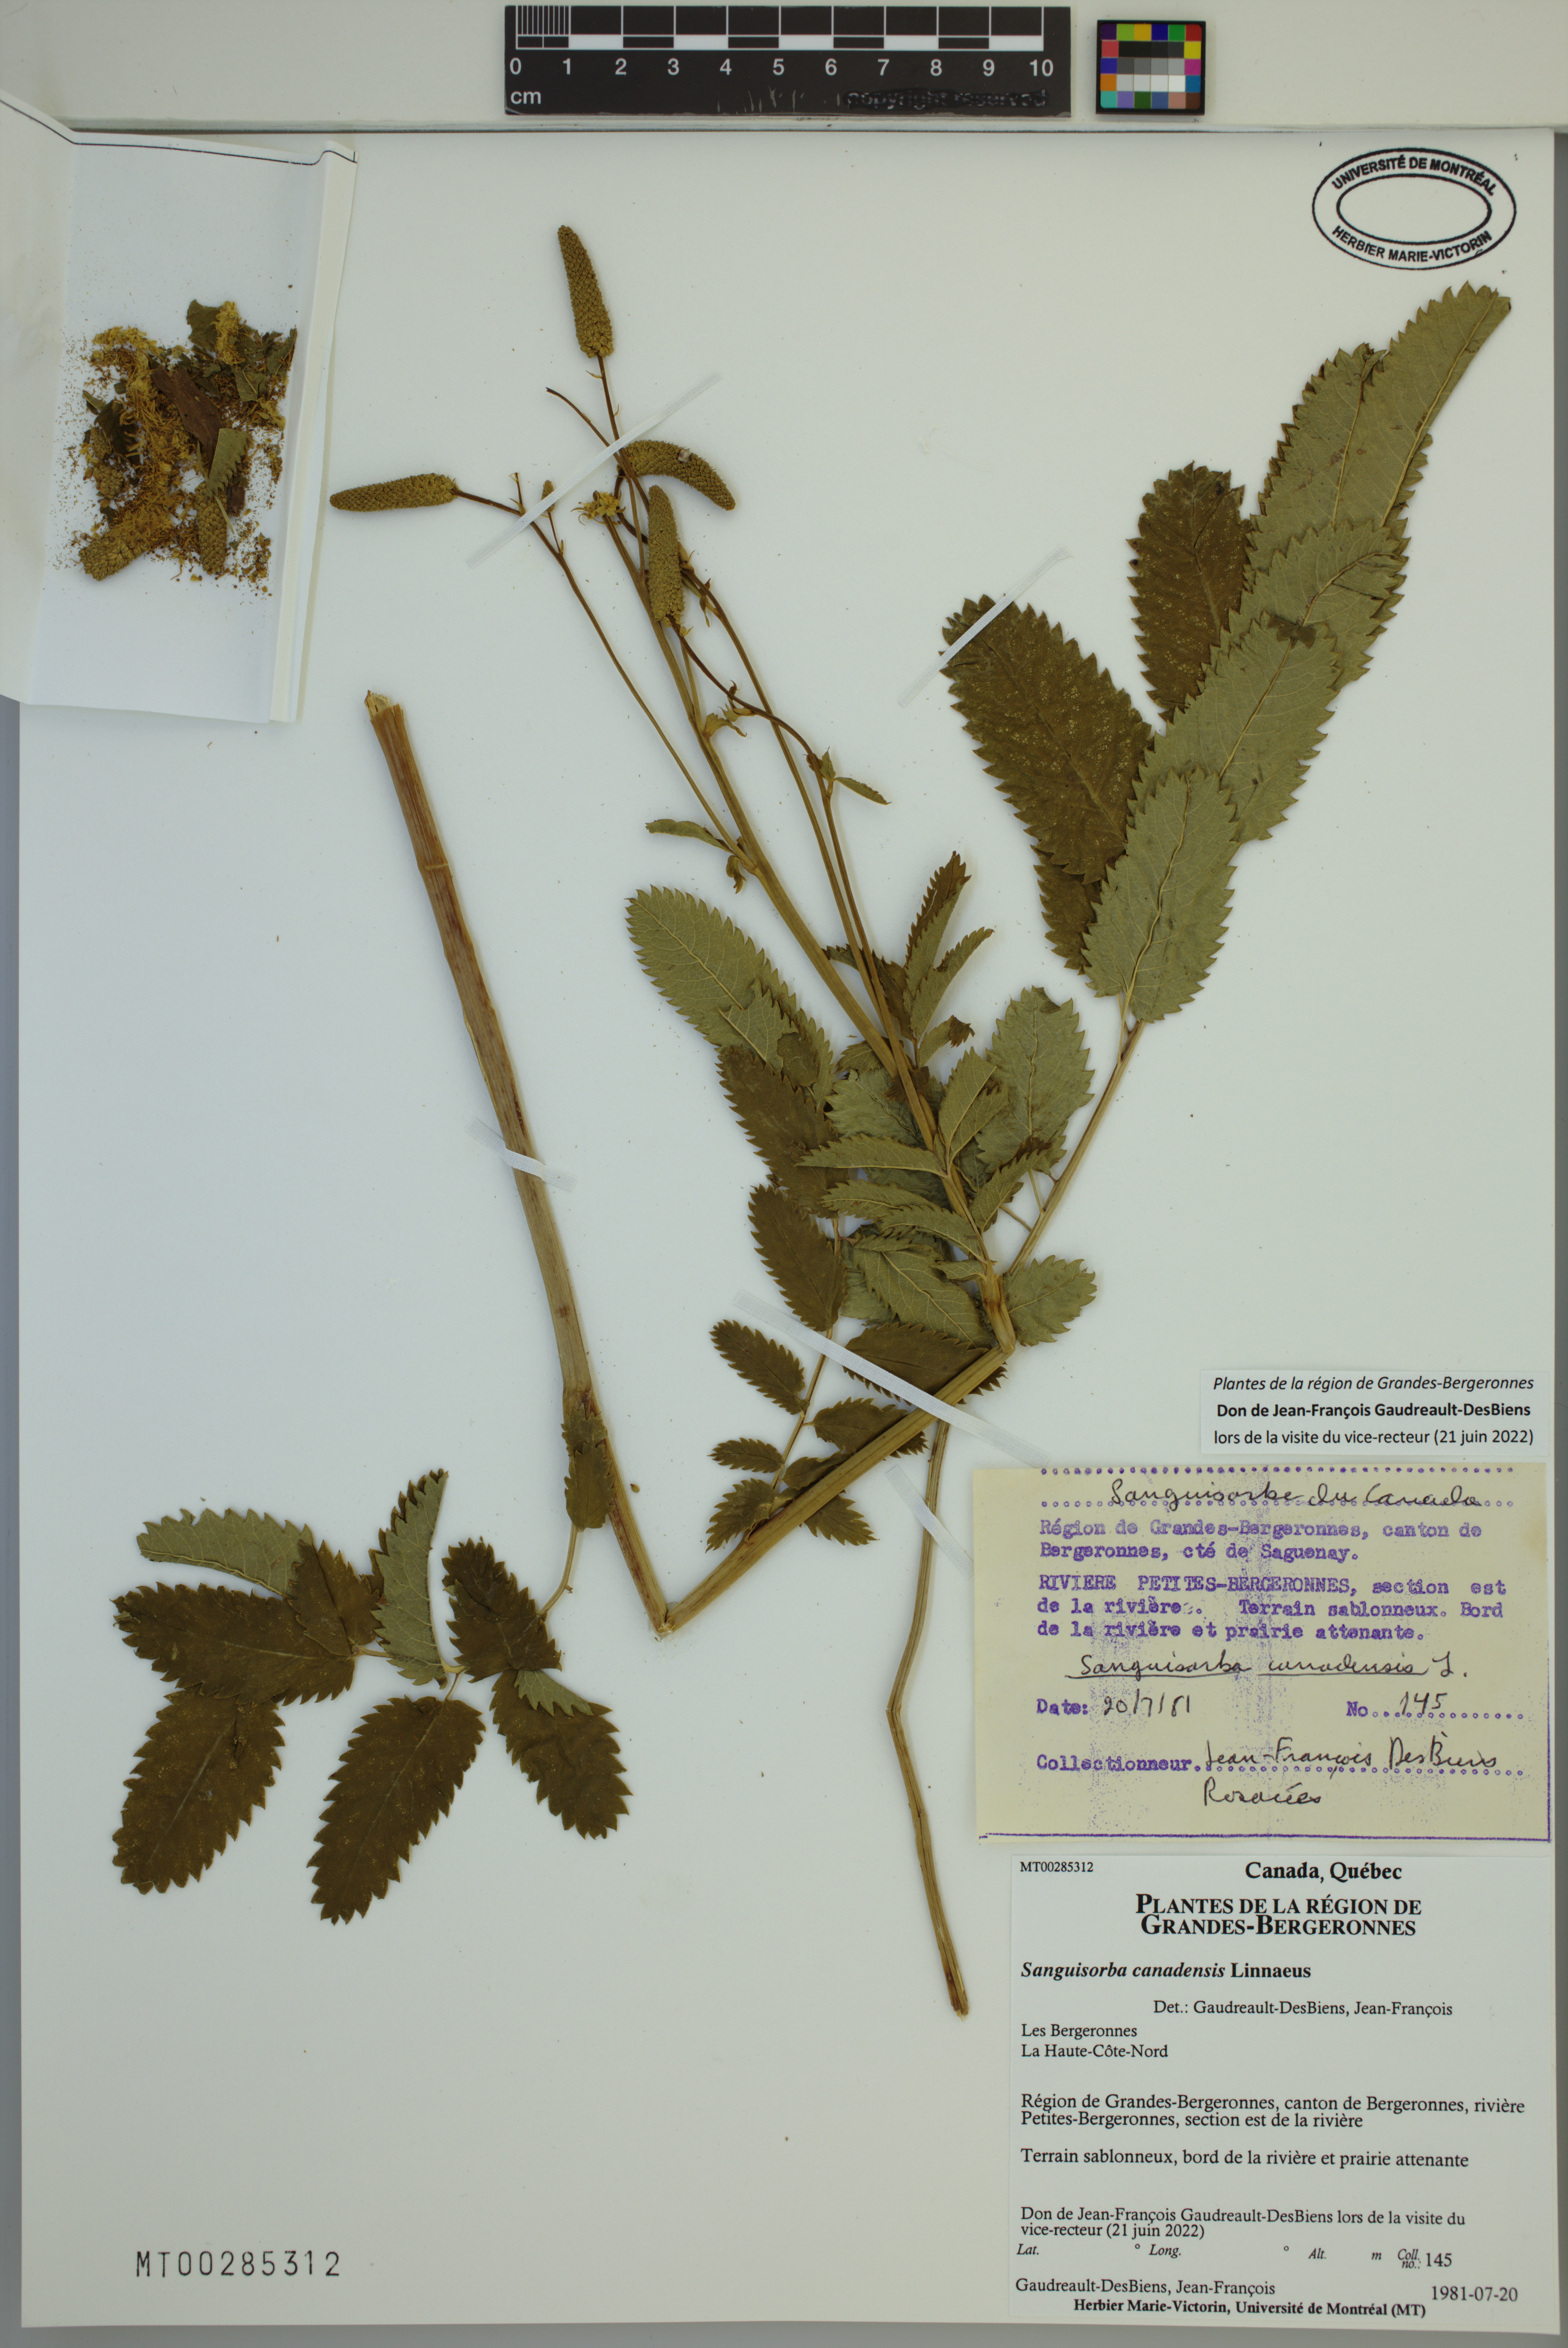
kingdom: Plantae
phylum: Tracheophyta
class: Magnoliopsida
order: Rosales
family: Rosaceae
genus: Sanguisorba
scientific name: Sanguisorba canadensis
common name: White burnet
